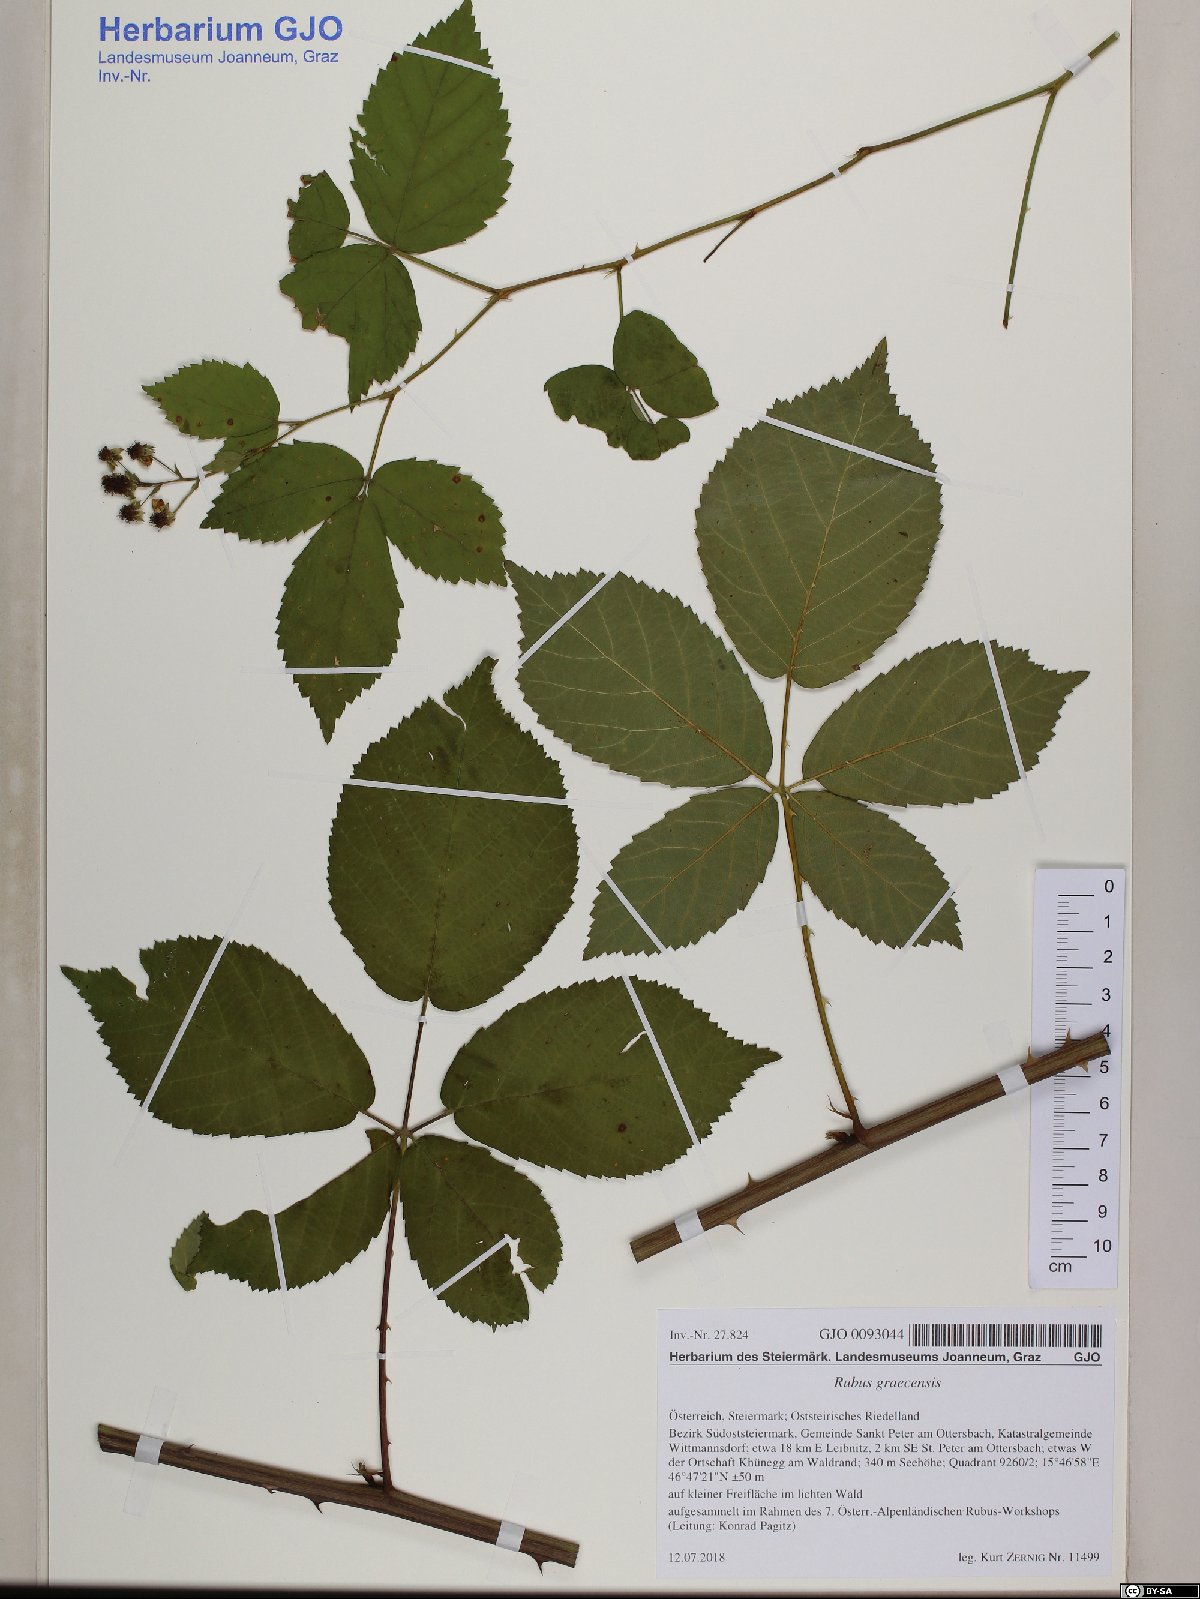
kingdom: Plantae
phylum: Tracheophyta
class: Magnoliopsida
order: Rosales
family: Rosaceae
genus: Rubus
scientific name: Rubus graecensis
